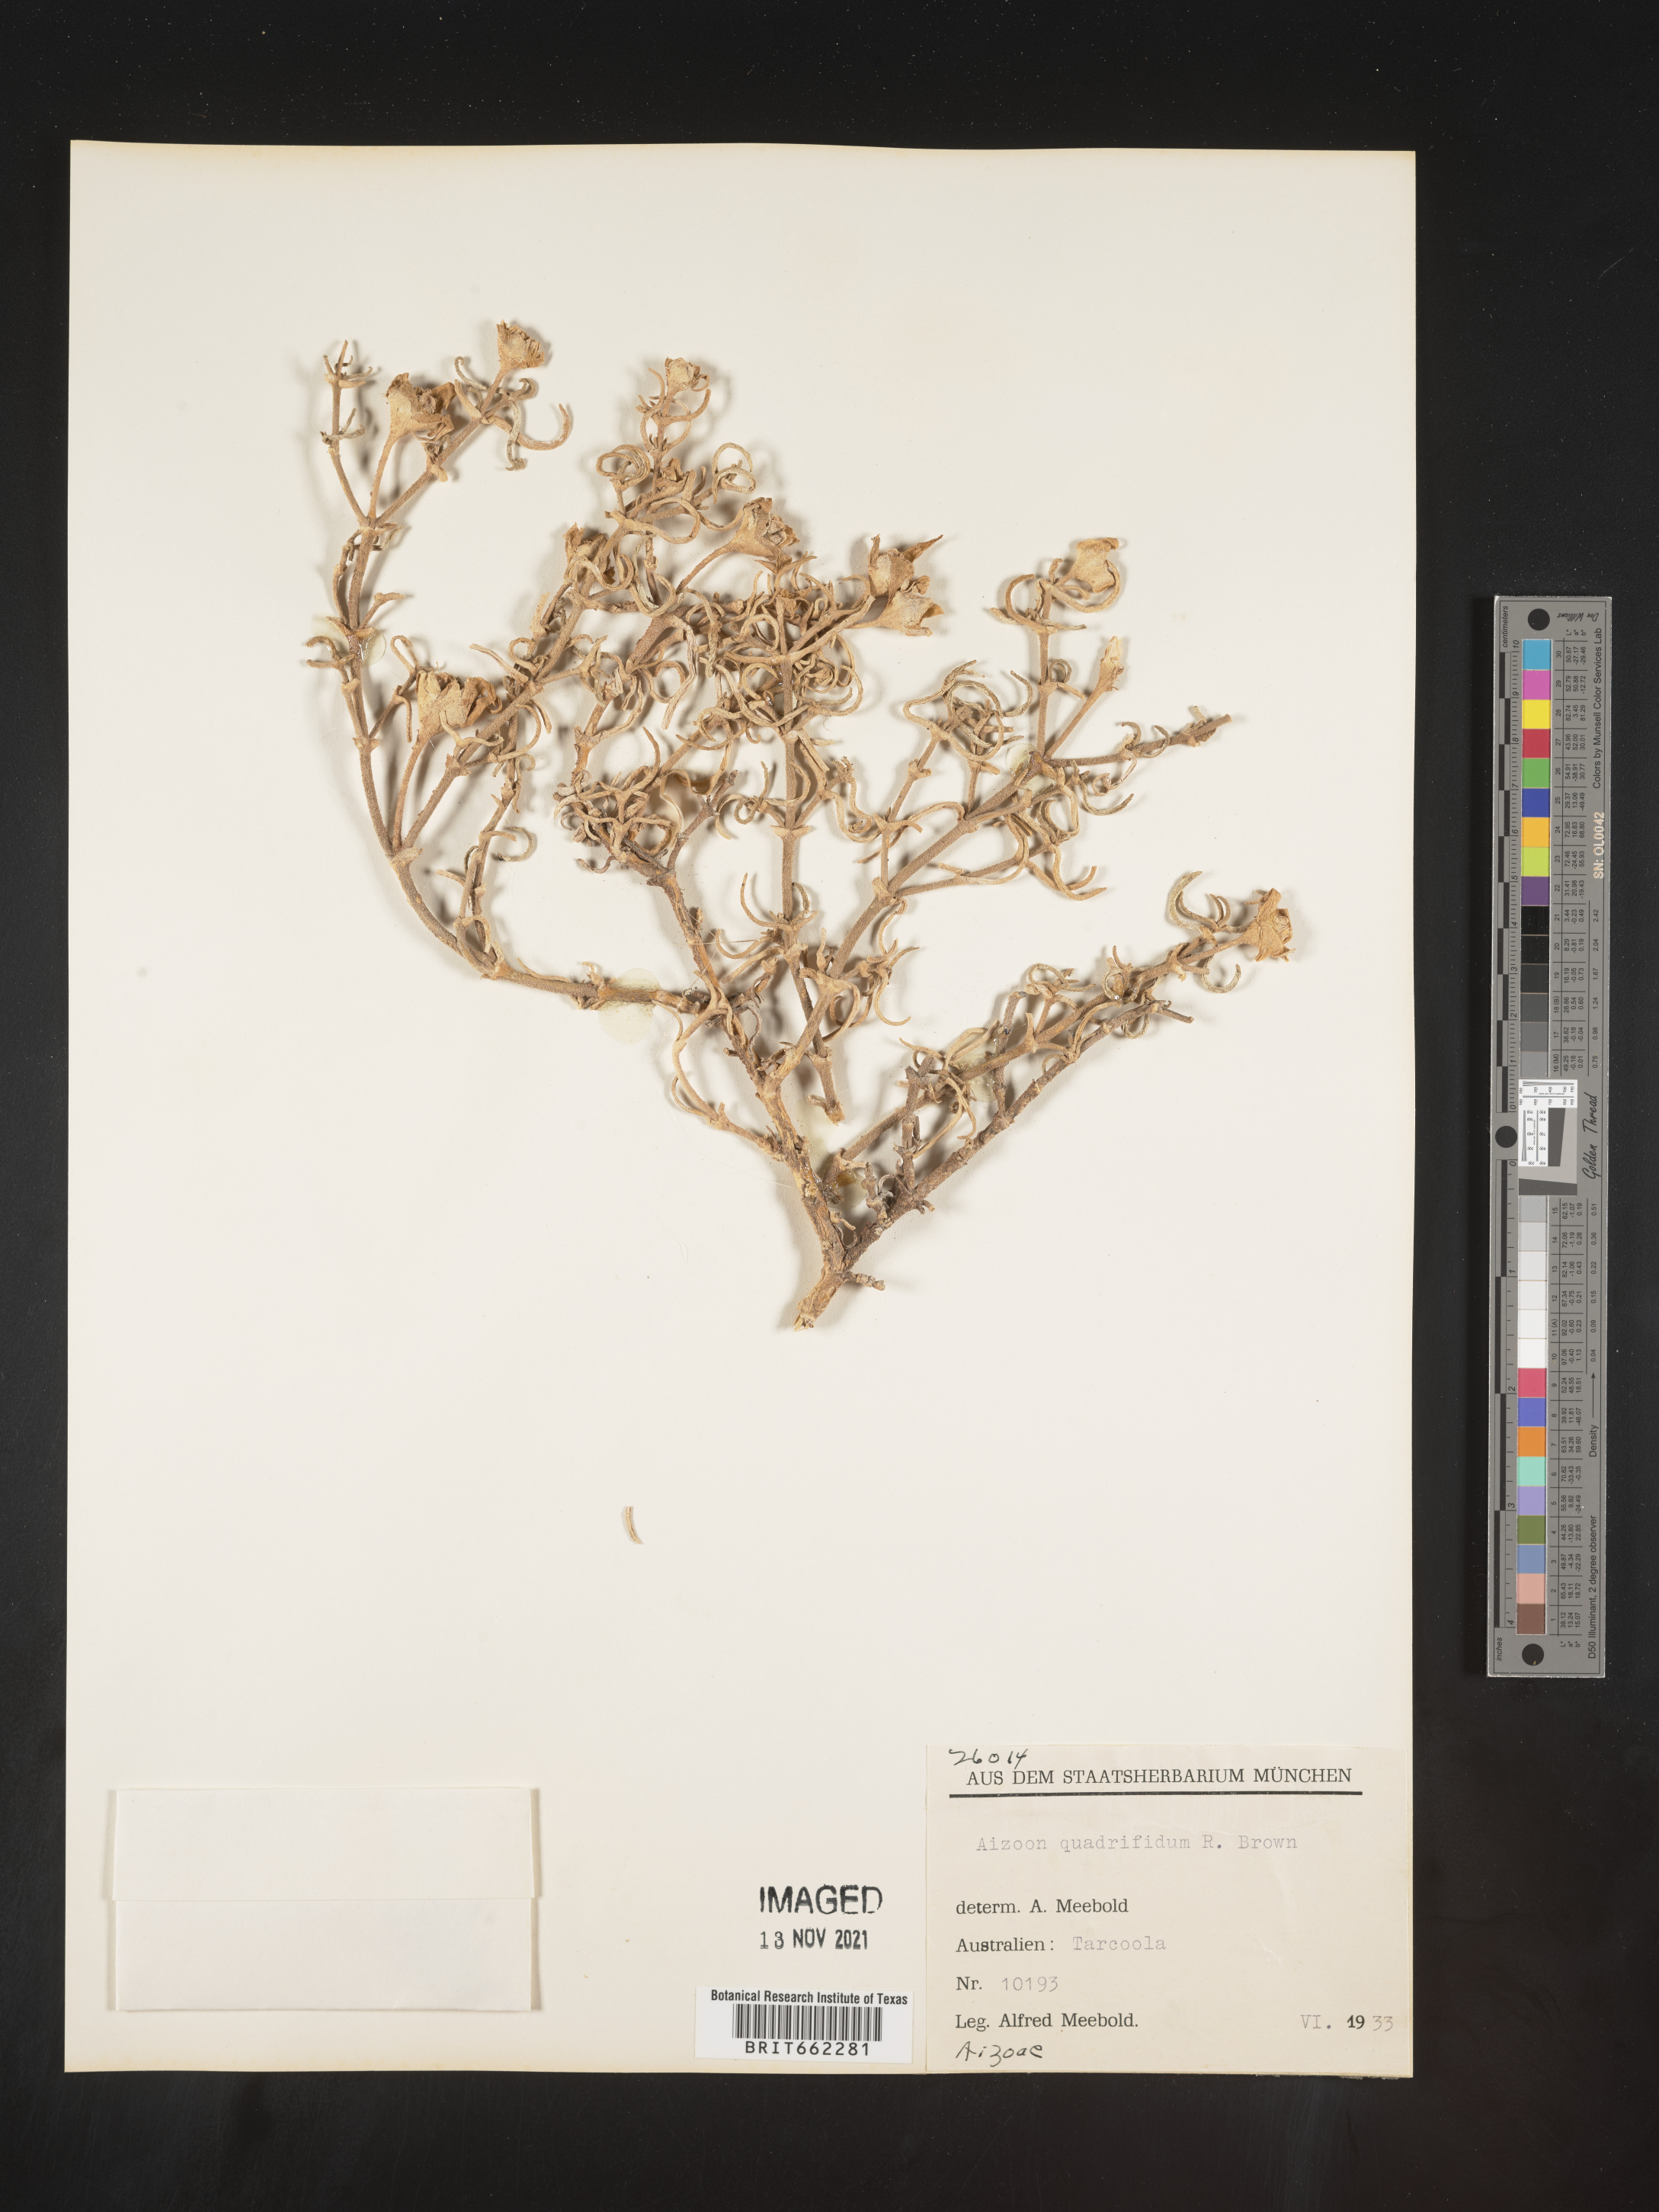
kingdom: Plantae
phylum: Tracheophyta
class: Magnoliopsida
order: Caryophyllales
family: Aizoaceae
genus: Aizoon
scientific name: Aizoon
